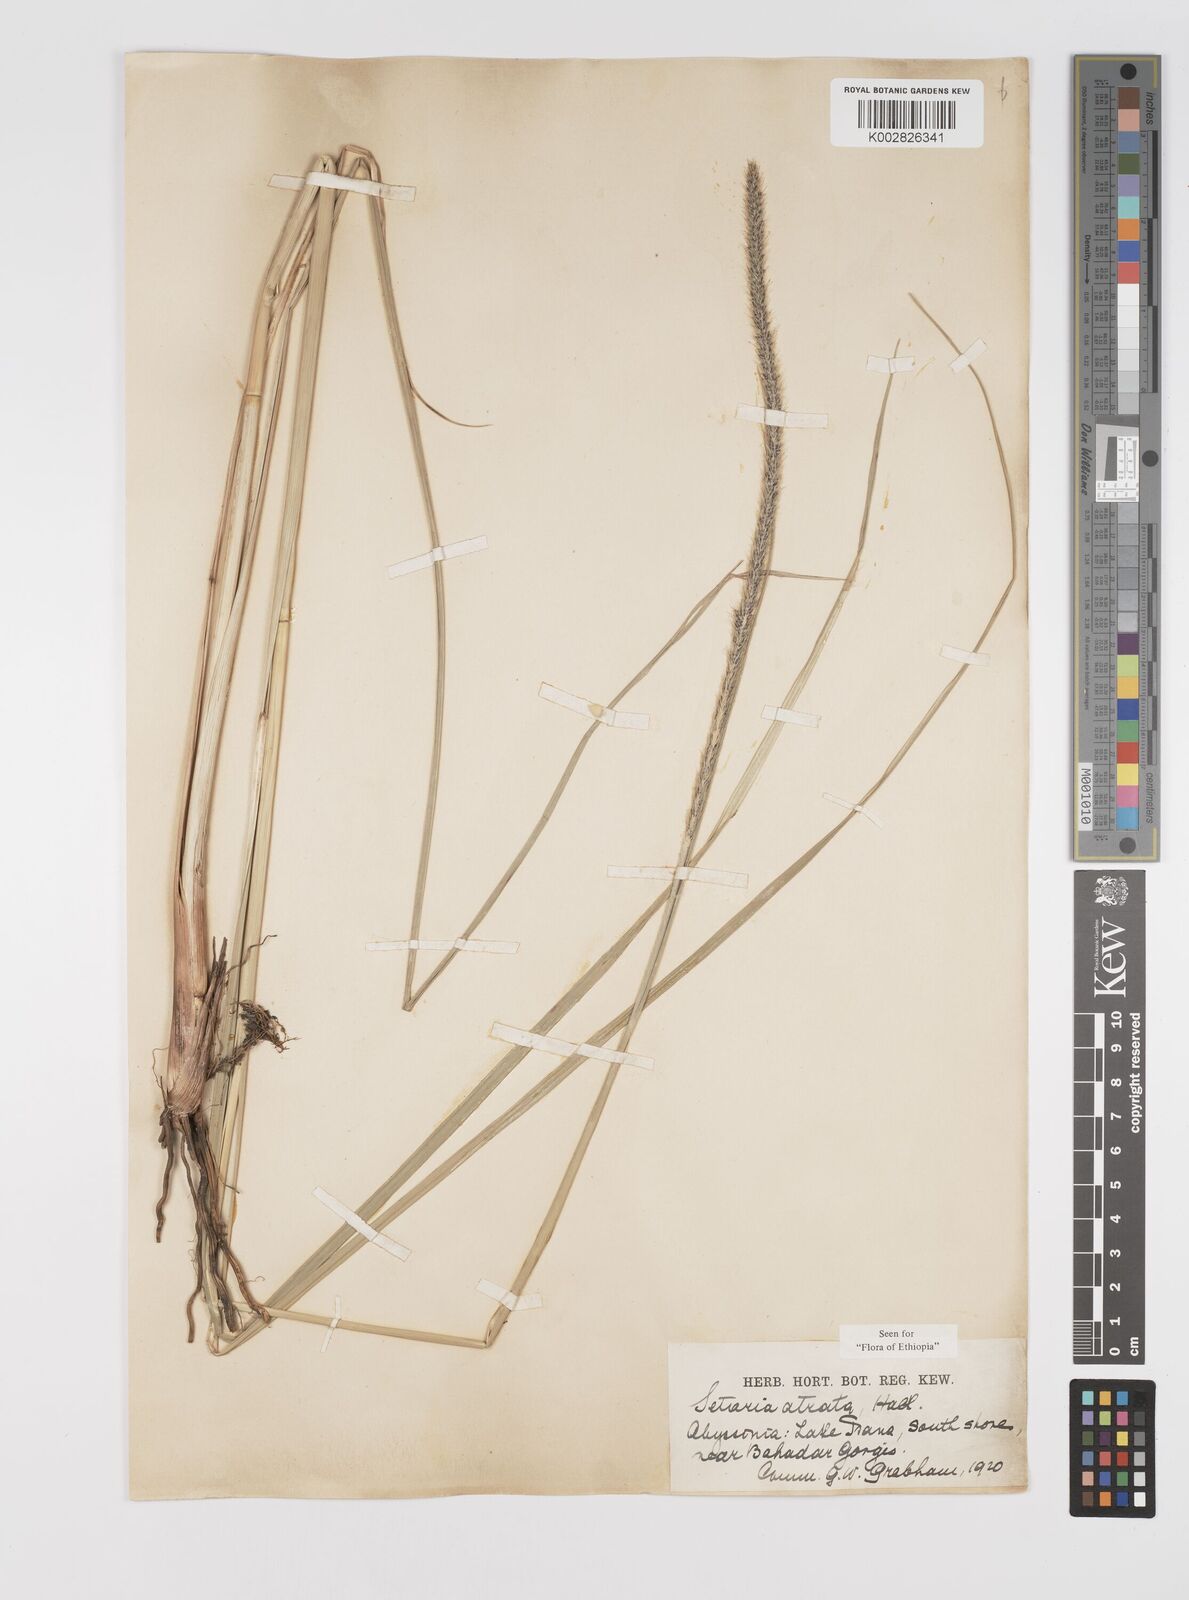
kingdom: Plantae
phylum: Tracheophyta
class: Liliopsida
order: Poales
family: Poaceae
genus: Setaria
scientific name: Setaria atrata
